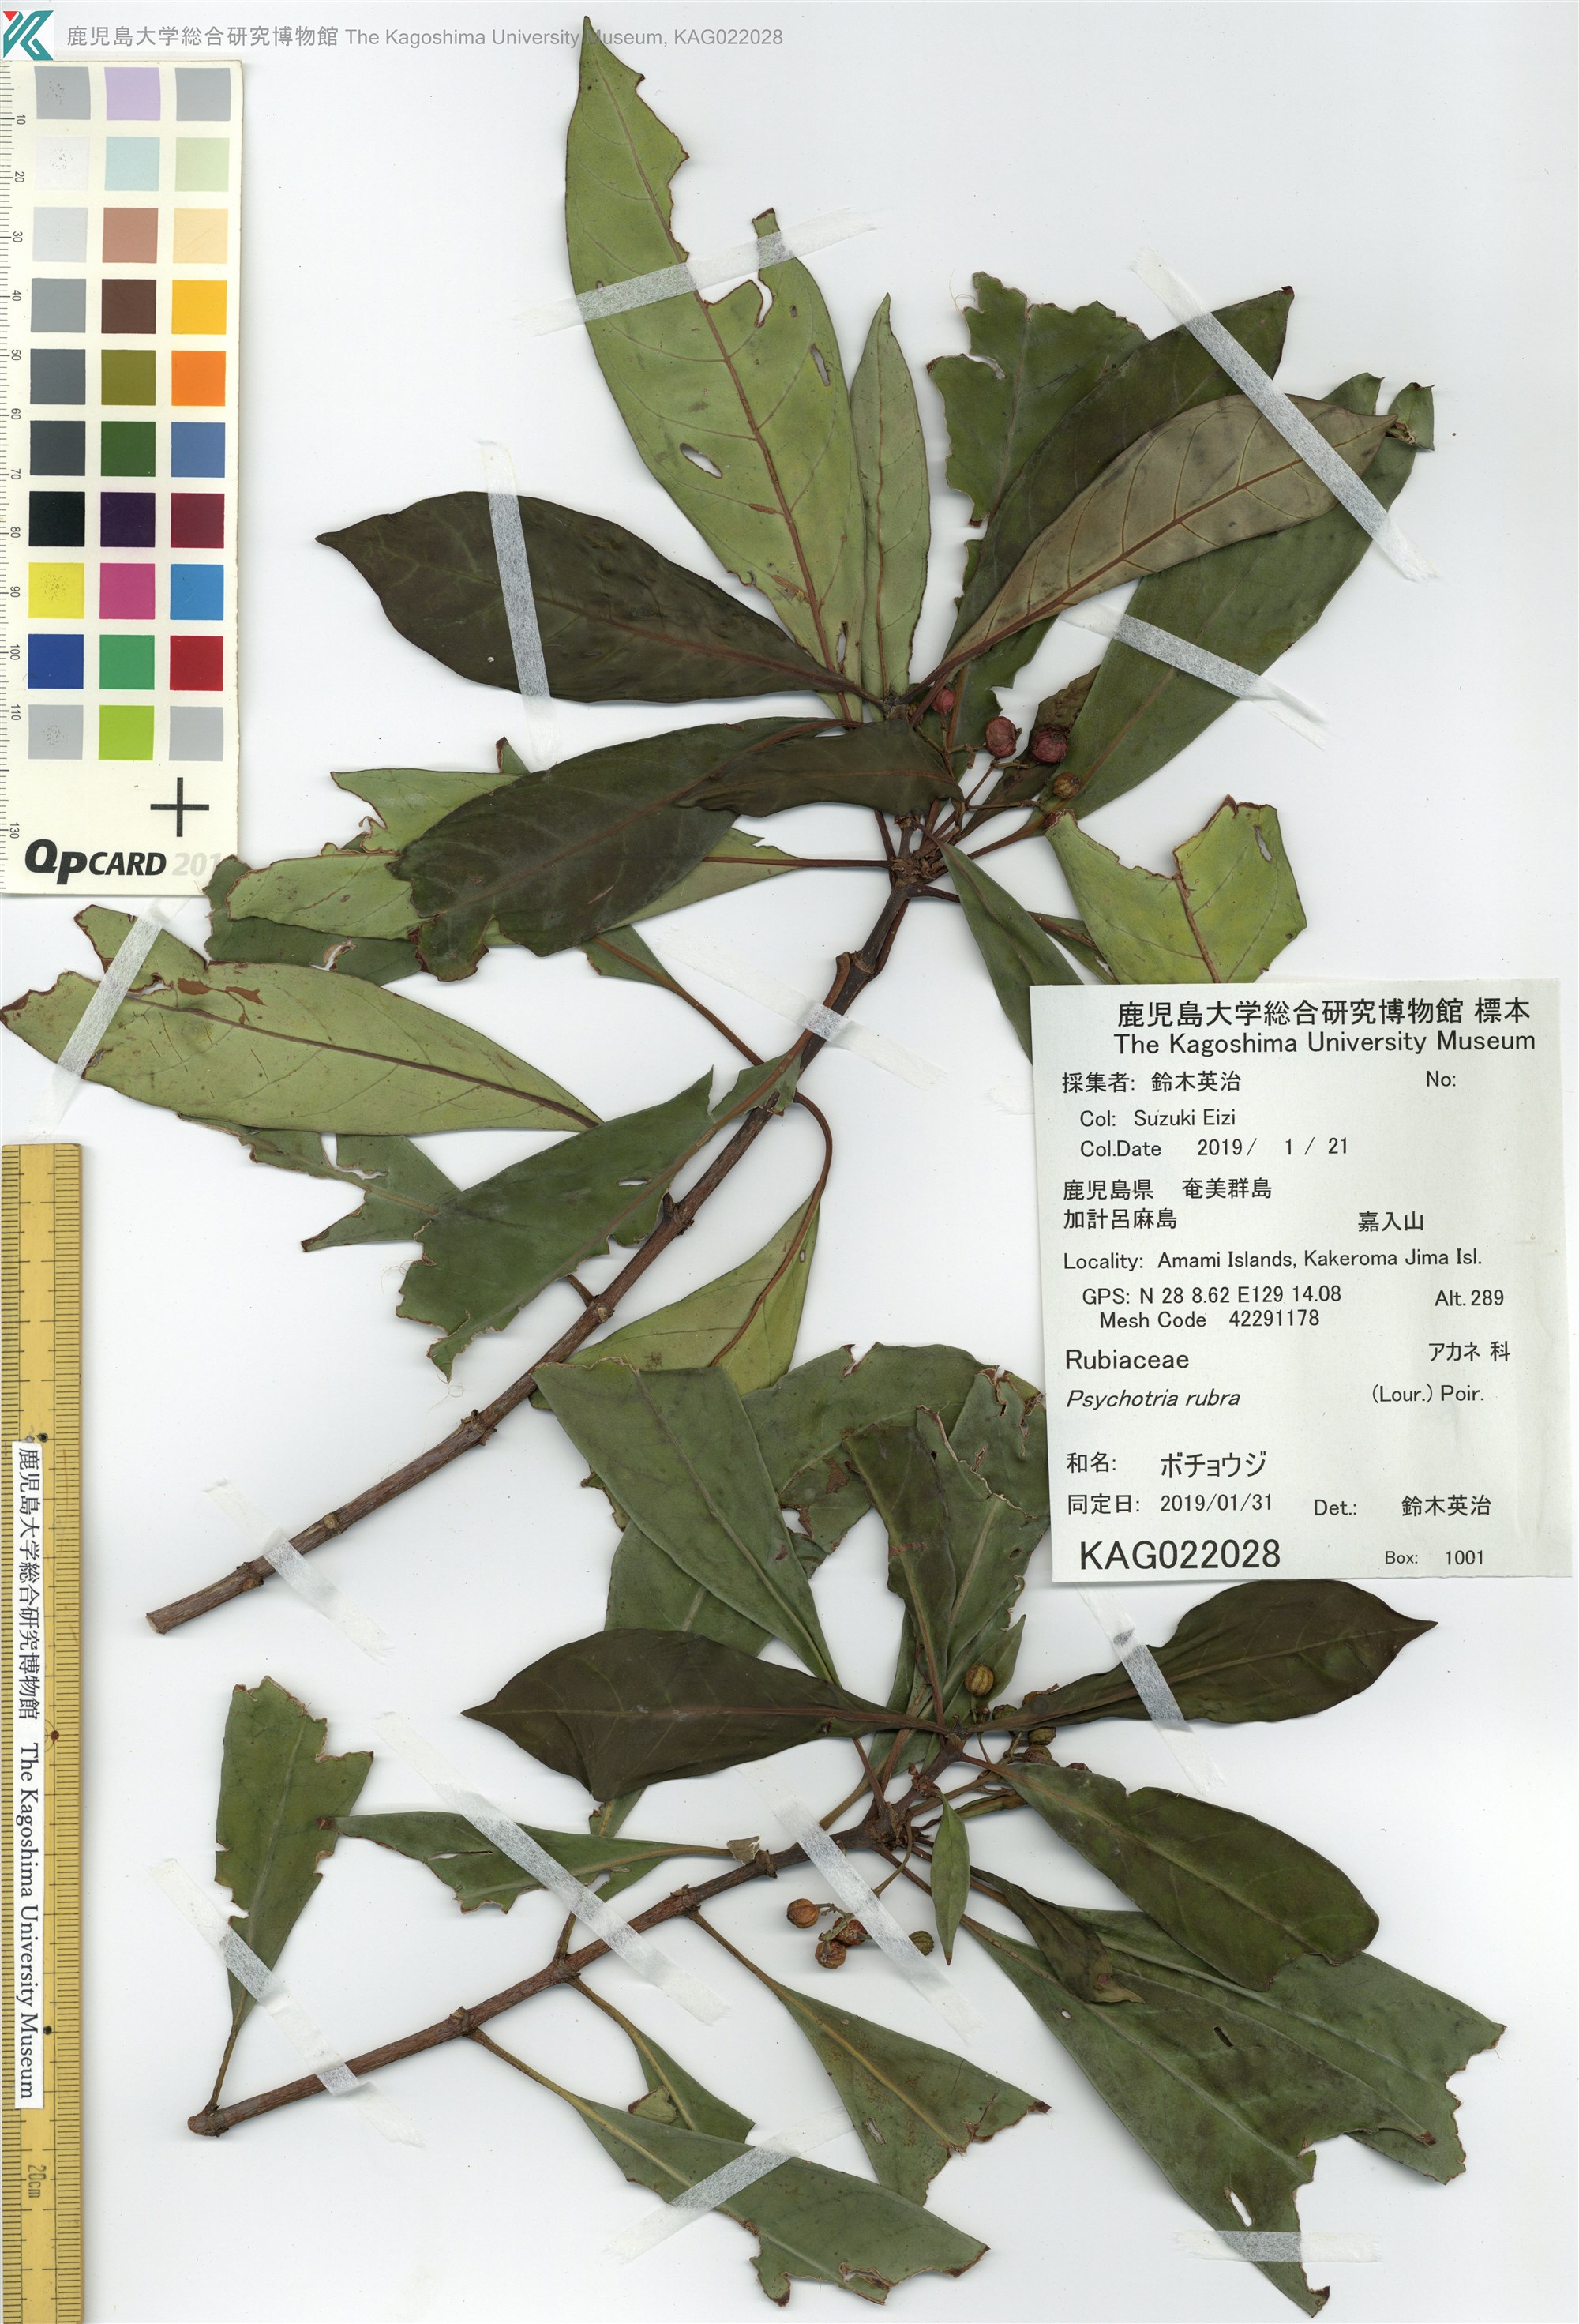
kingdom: Plantae
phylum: Tracheophyta
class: Magnoliopsida
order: Gentianales
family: Rubiaceae
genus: Psychotria
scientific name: Psychotria asiatica
